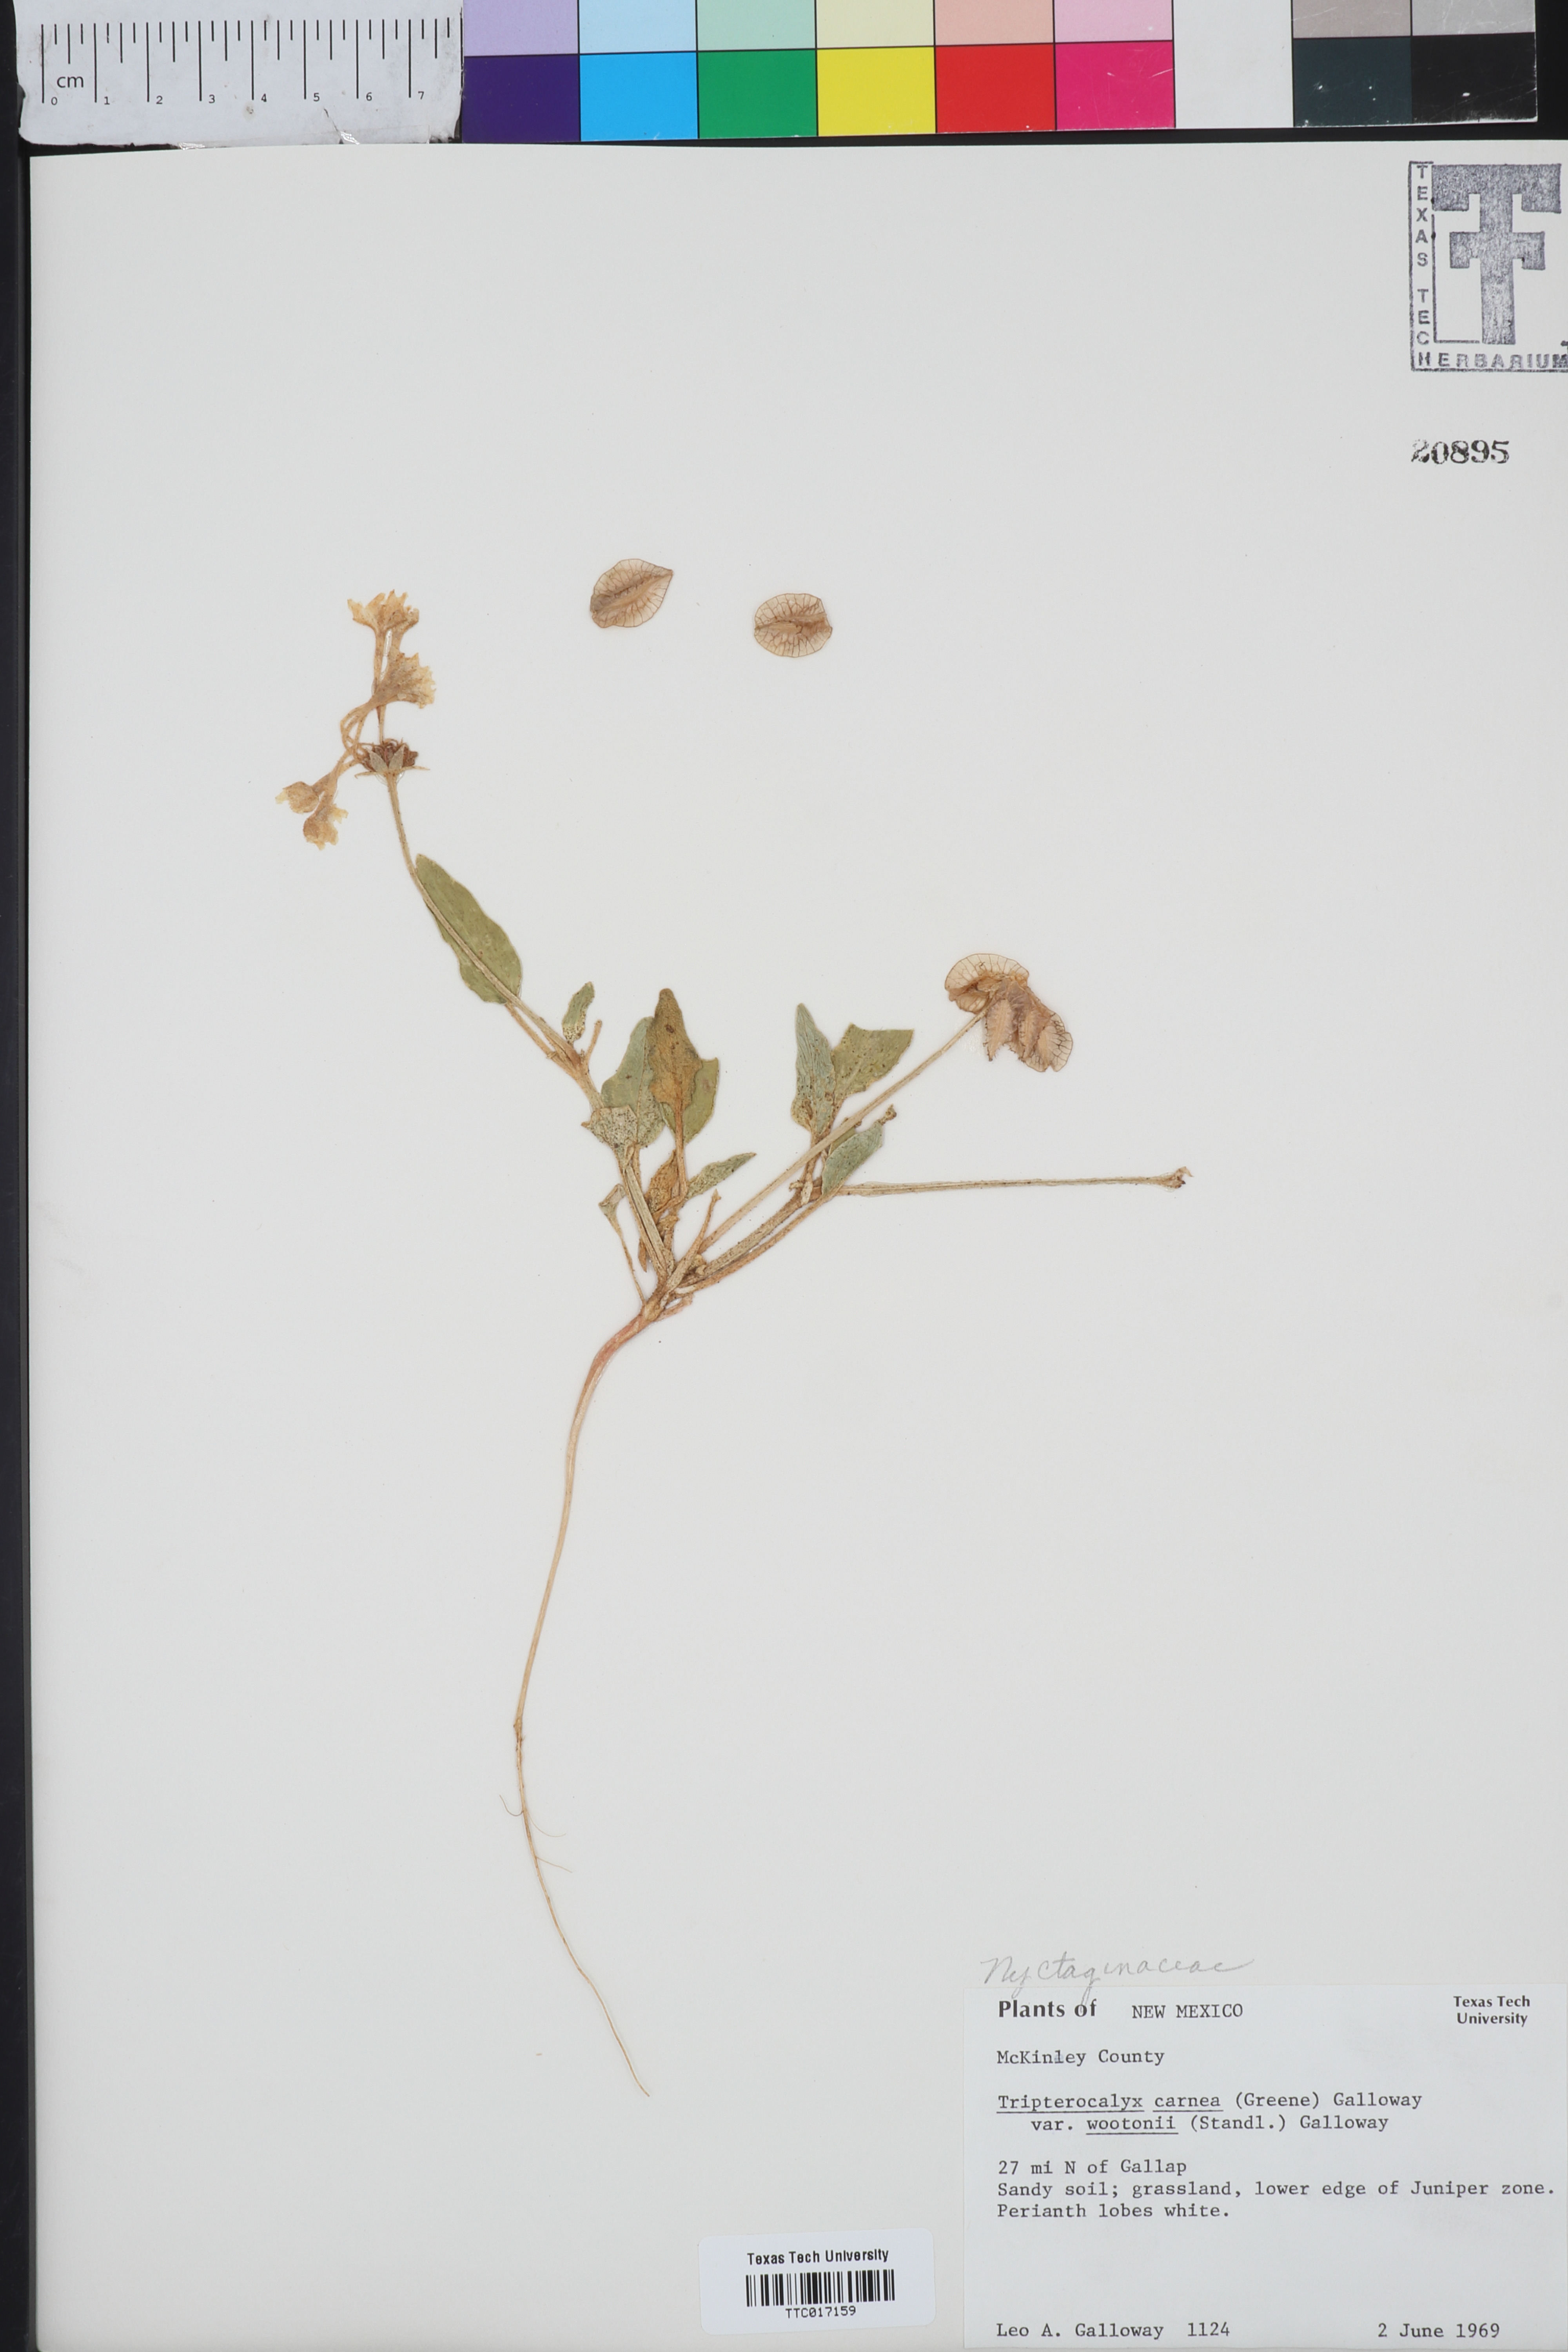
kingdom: Plantae
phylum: Tracheophyta
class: Magnoliopsida
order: Caryophyllales
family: Nyctaginaceae
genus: Tripterocalyx
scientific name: Tripterocalyx wootonii
